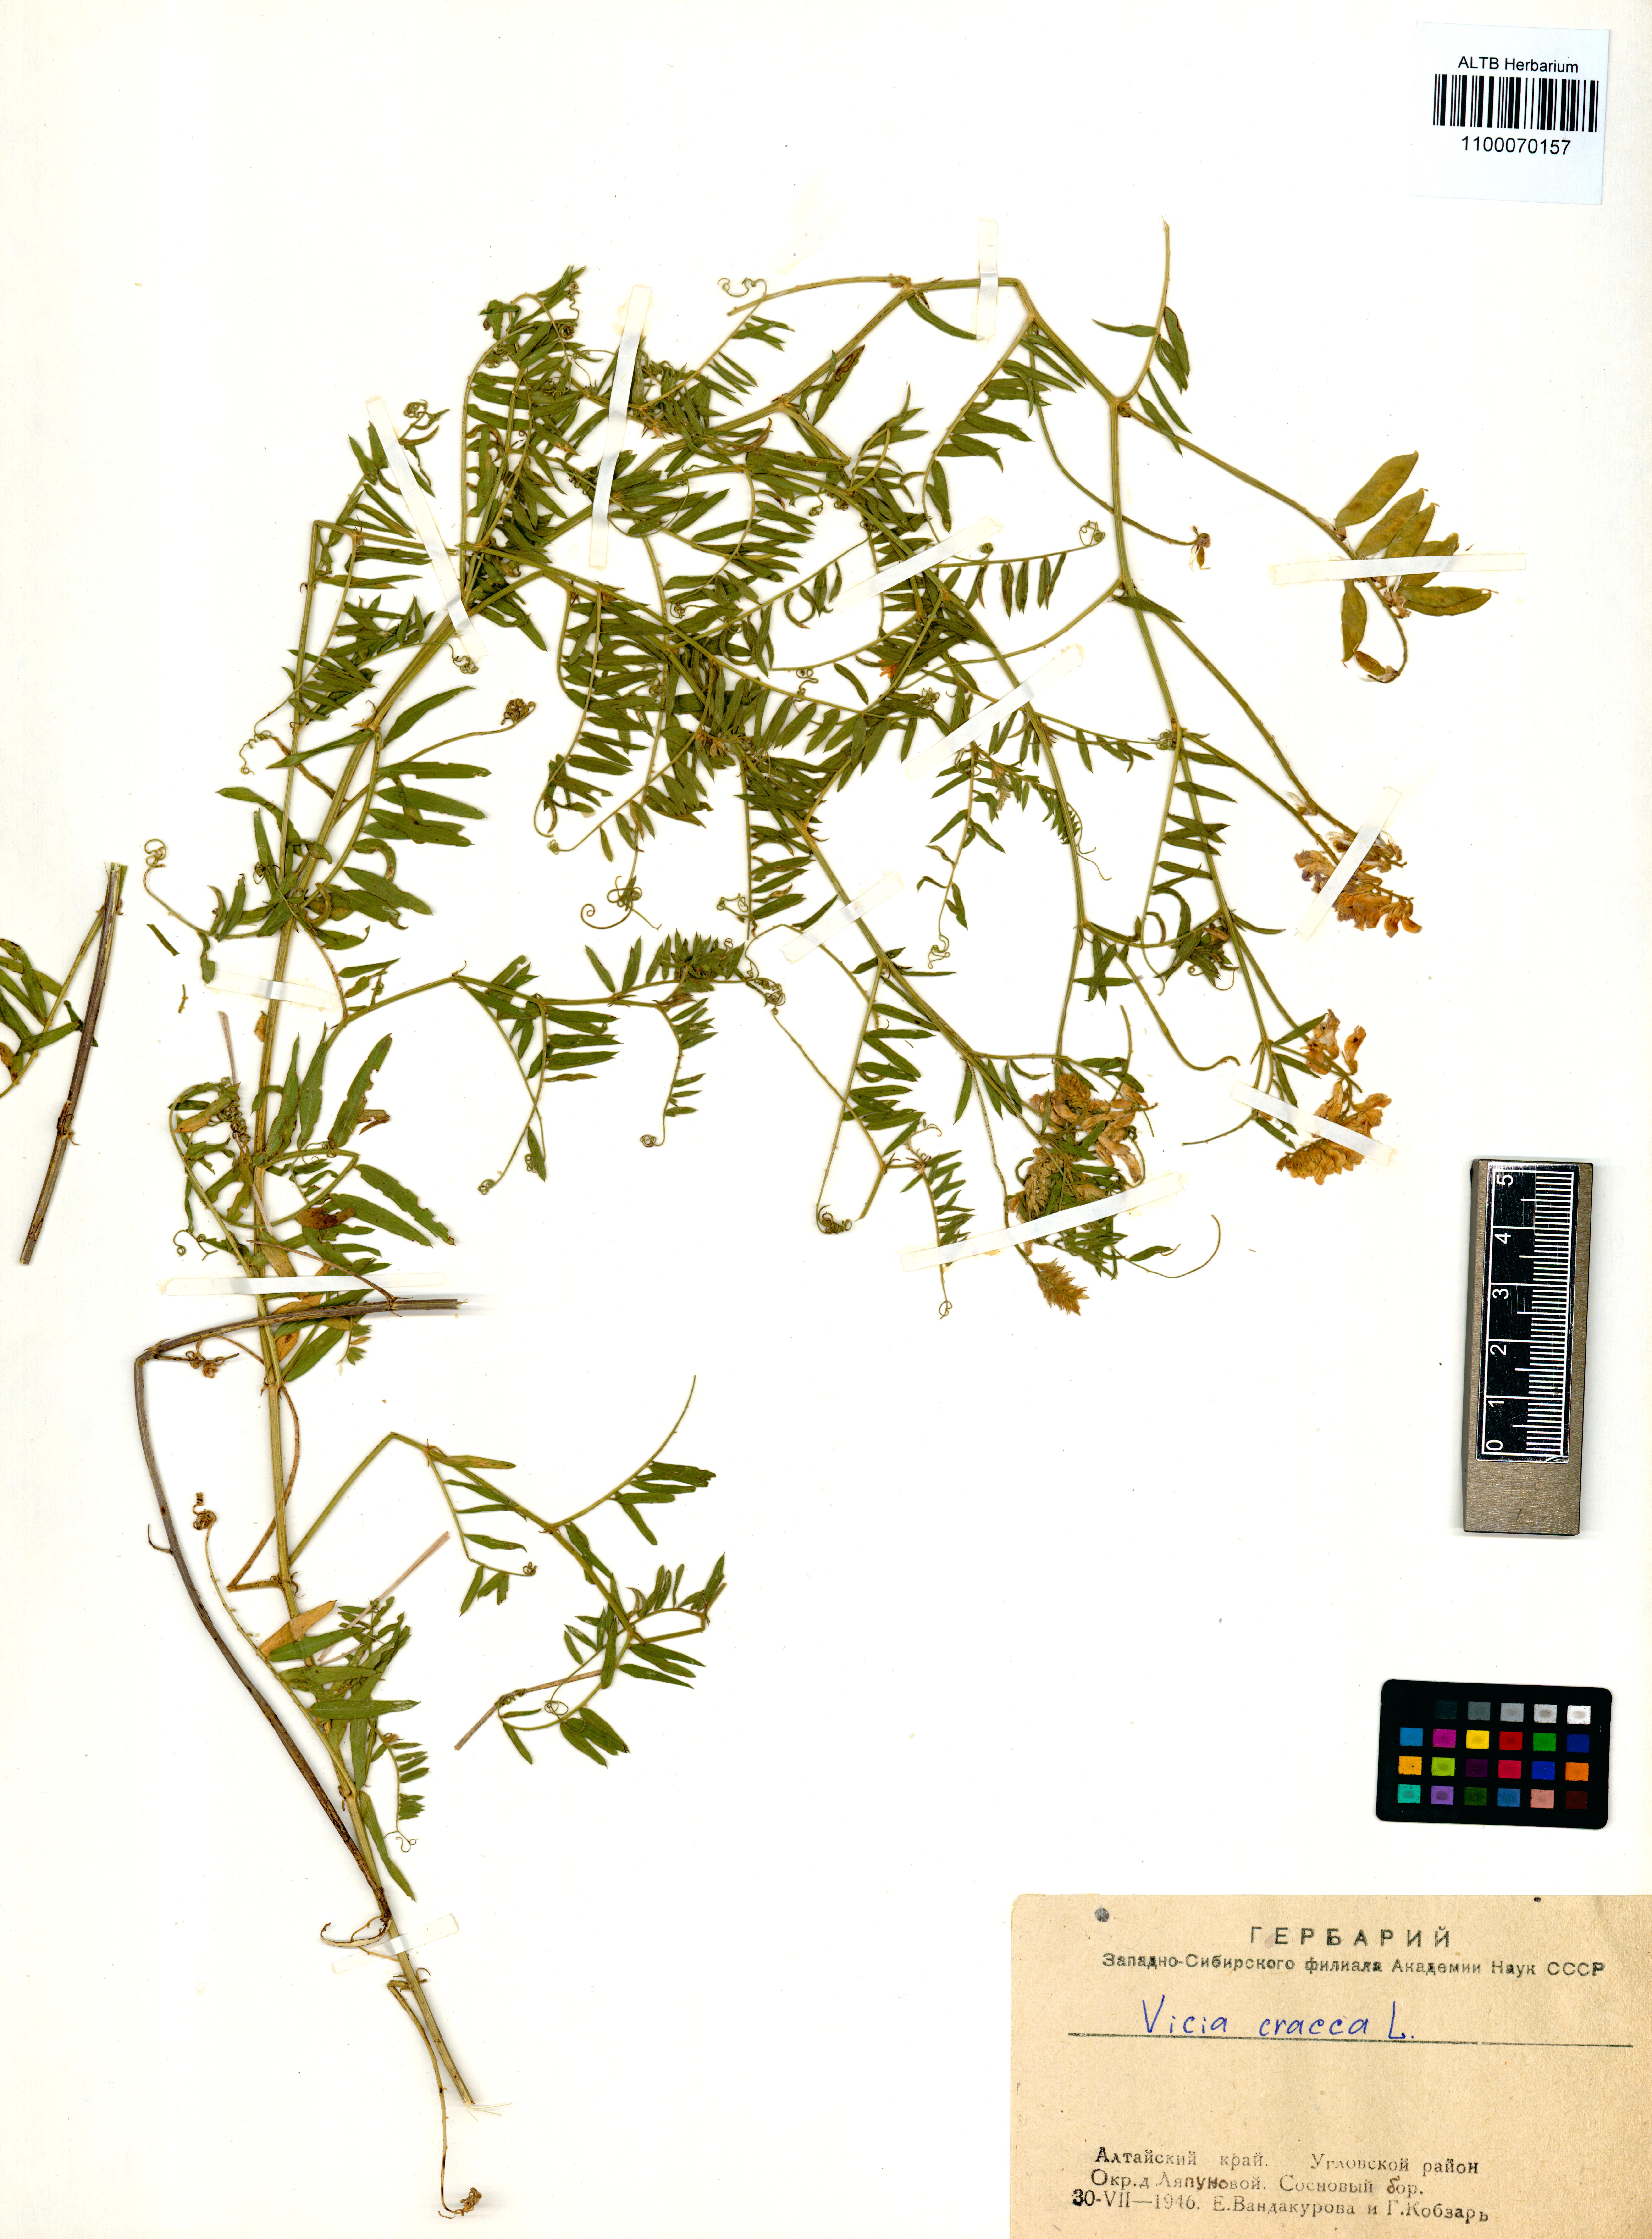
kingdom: Plantae
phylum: Tracheophyta
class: Magnoliopsida
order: Fabales
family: Fabaceae
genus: Vicia
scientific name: Vicia cracca
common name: Bird vetch
